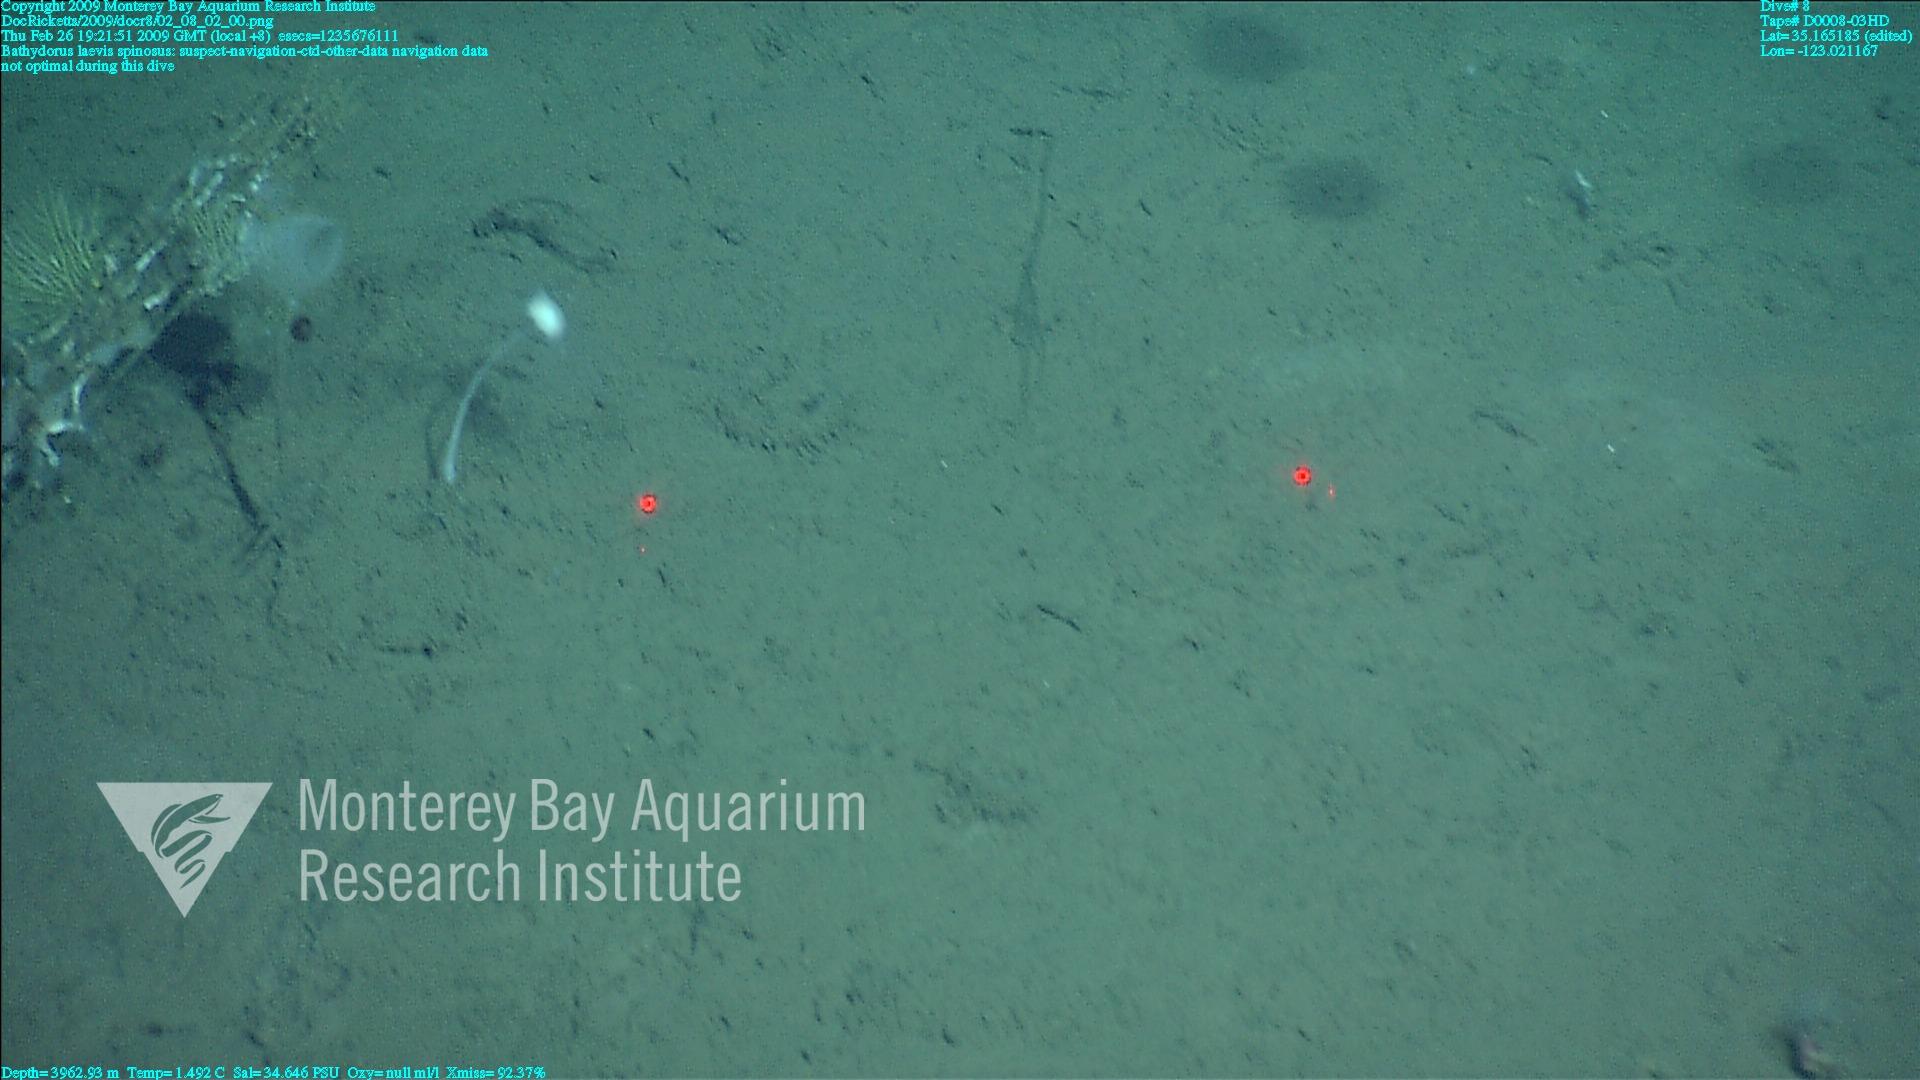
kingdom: Animalia
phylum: Porifera
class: Hexactinellida
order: Lyssacinosida
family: Rossellidae
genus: Bathydorus
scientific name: Bathydorus spinosus
